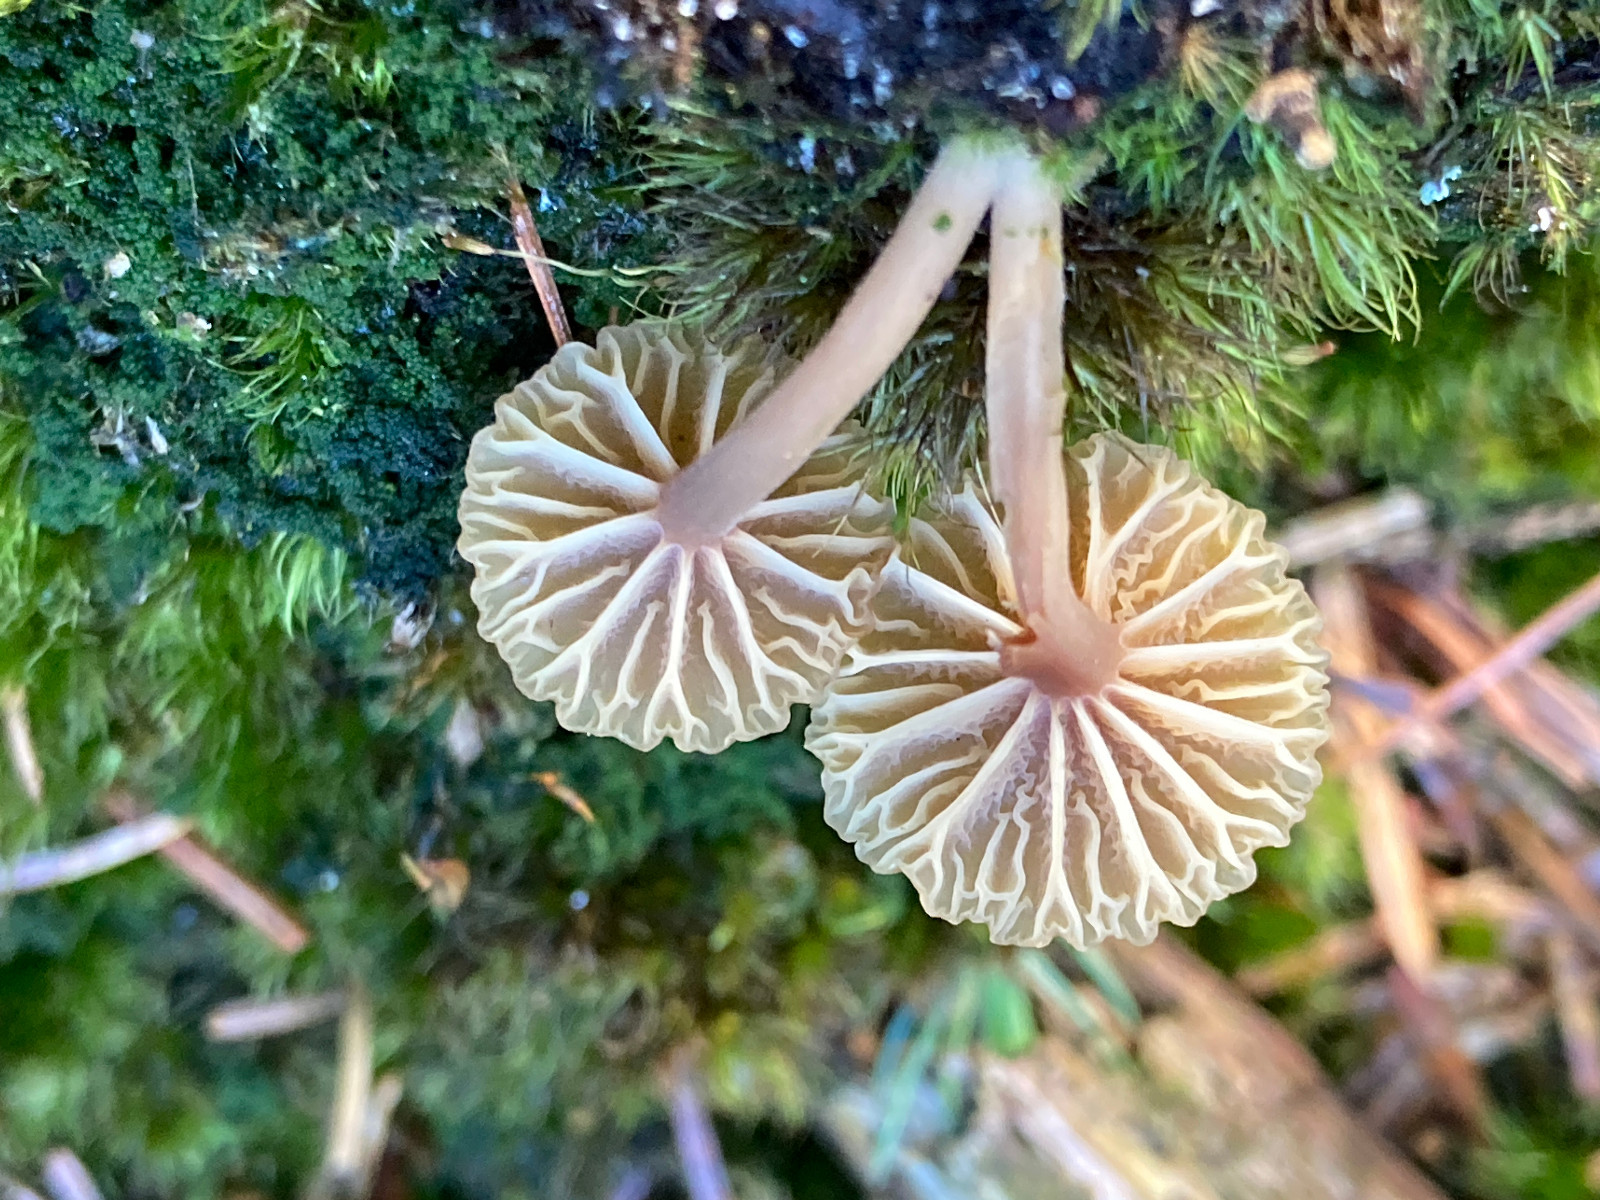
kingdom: Fungi
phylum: Basidiomycota
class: Agaricomycetes
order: Agaricales
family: Hygrophoraceae
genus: Lichenomphalia
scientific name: Lichenomphalia umbellifera
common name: tørve-lavhat
